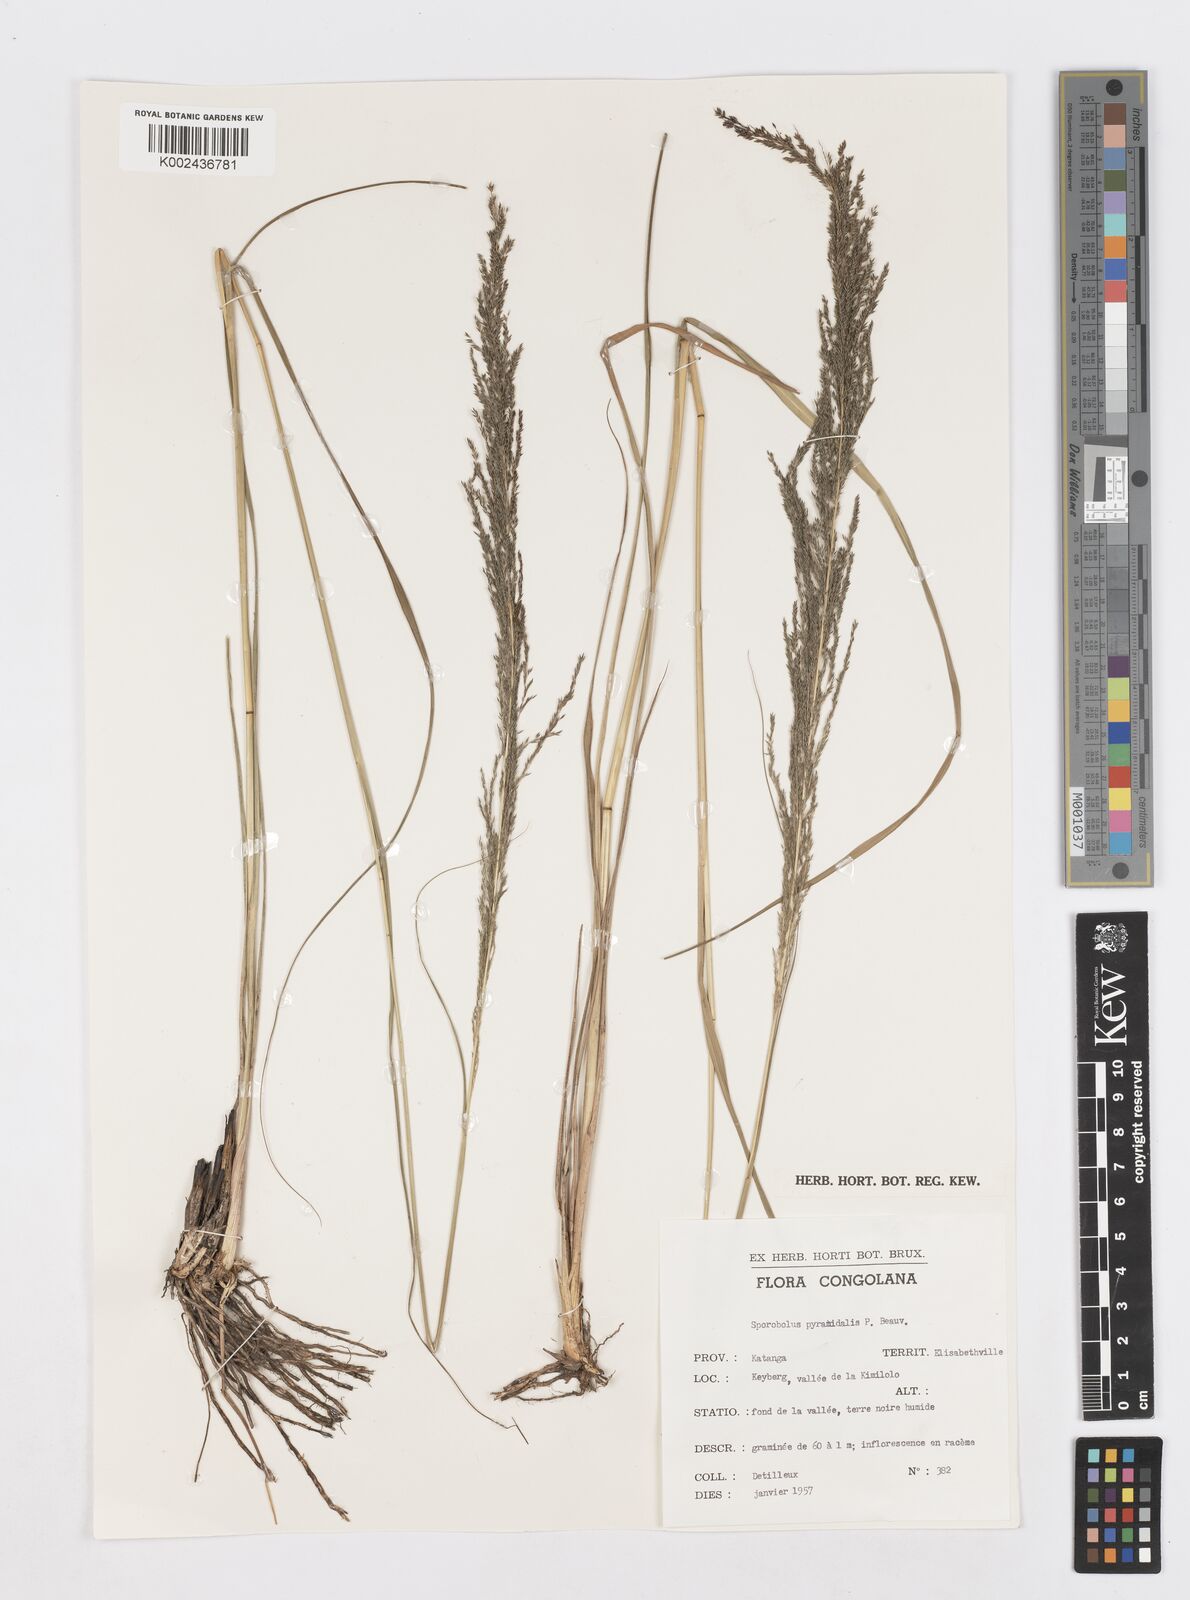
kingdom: Plantae
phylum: Tracheophyta
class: Liliopsida
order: Poales
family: Poaceae
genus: Sporobolus
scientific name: Sporobolus pyramidalis
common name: West indian dropseed
